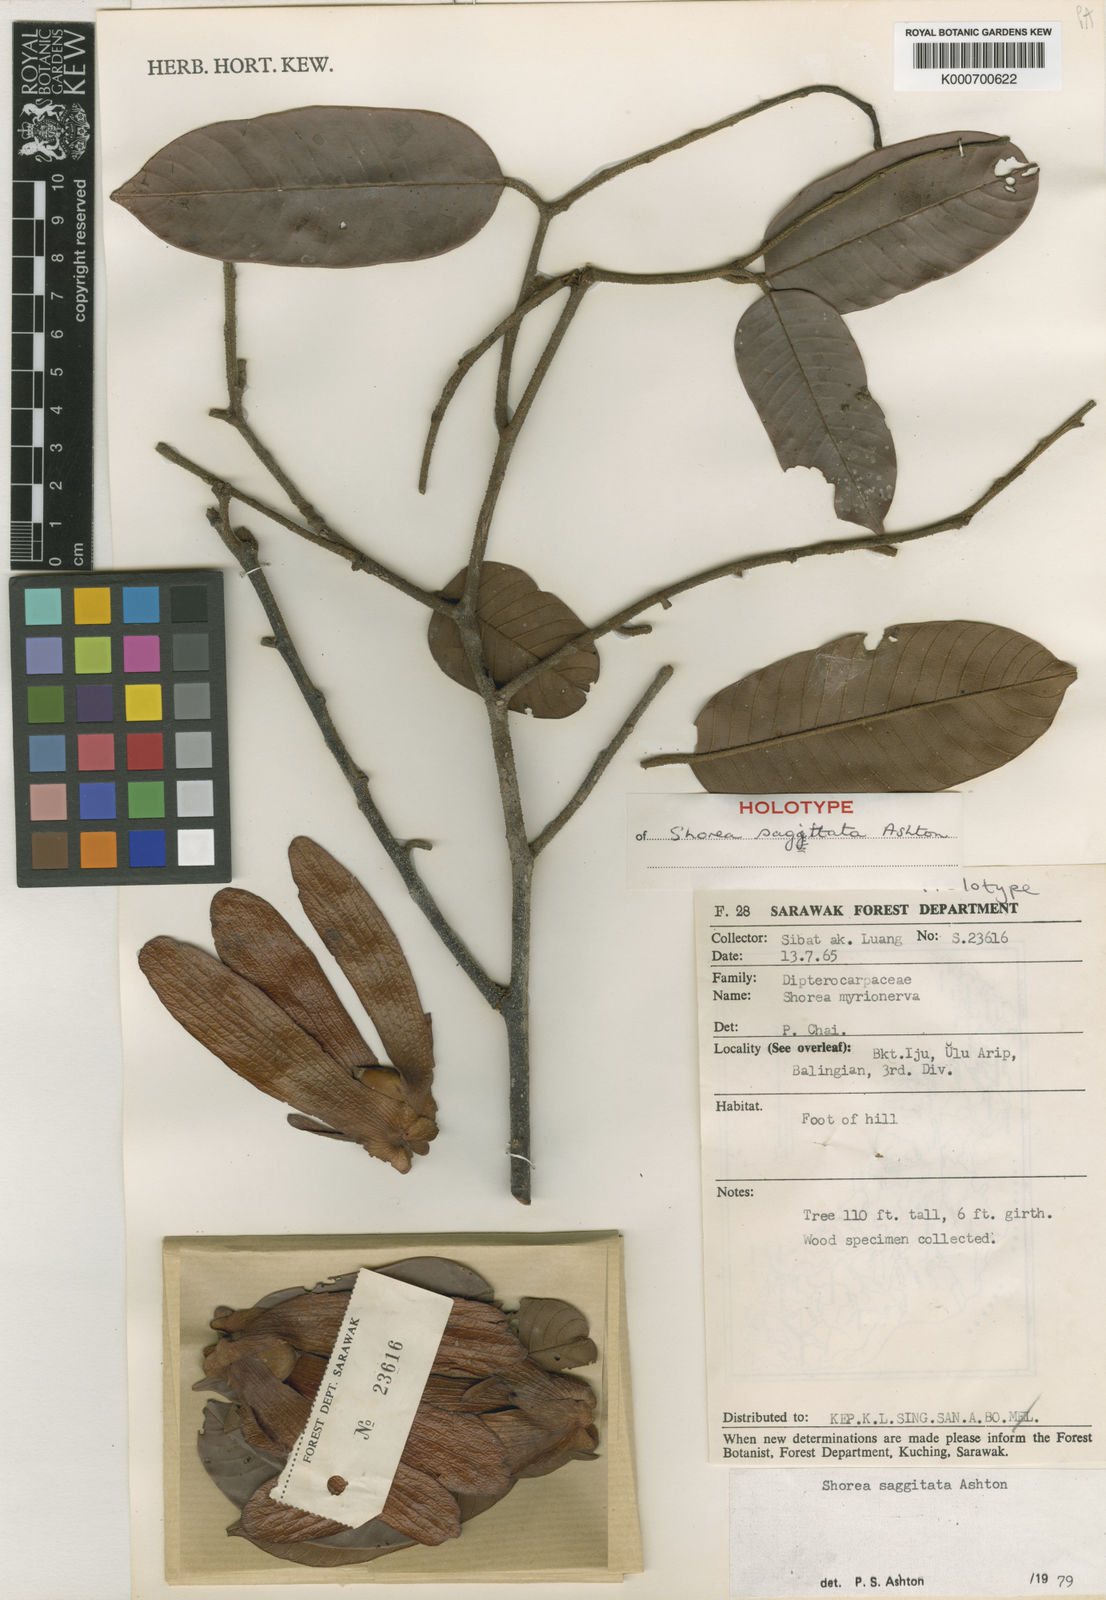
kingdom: Plantae
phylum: Tracheophyta
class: Magnoliopsida
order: Malvales
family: Dipterocarpaceae
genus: Shorea
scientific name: Shorea sagittata
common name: Light red meranti
